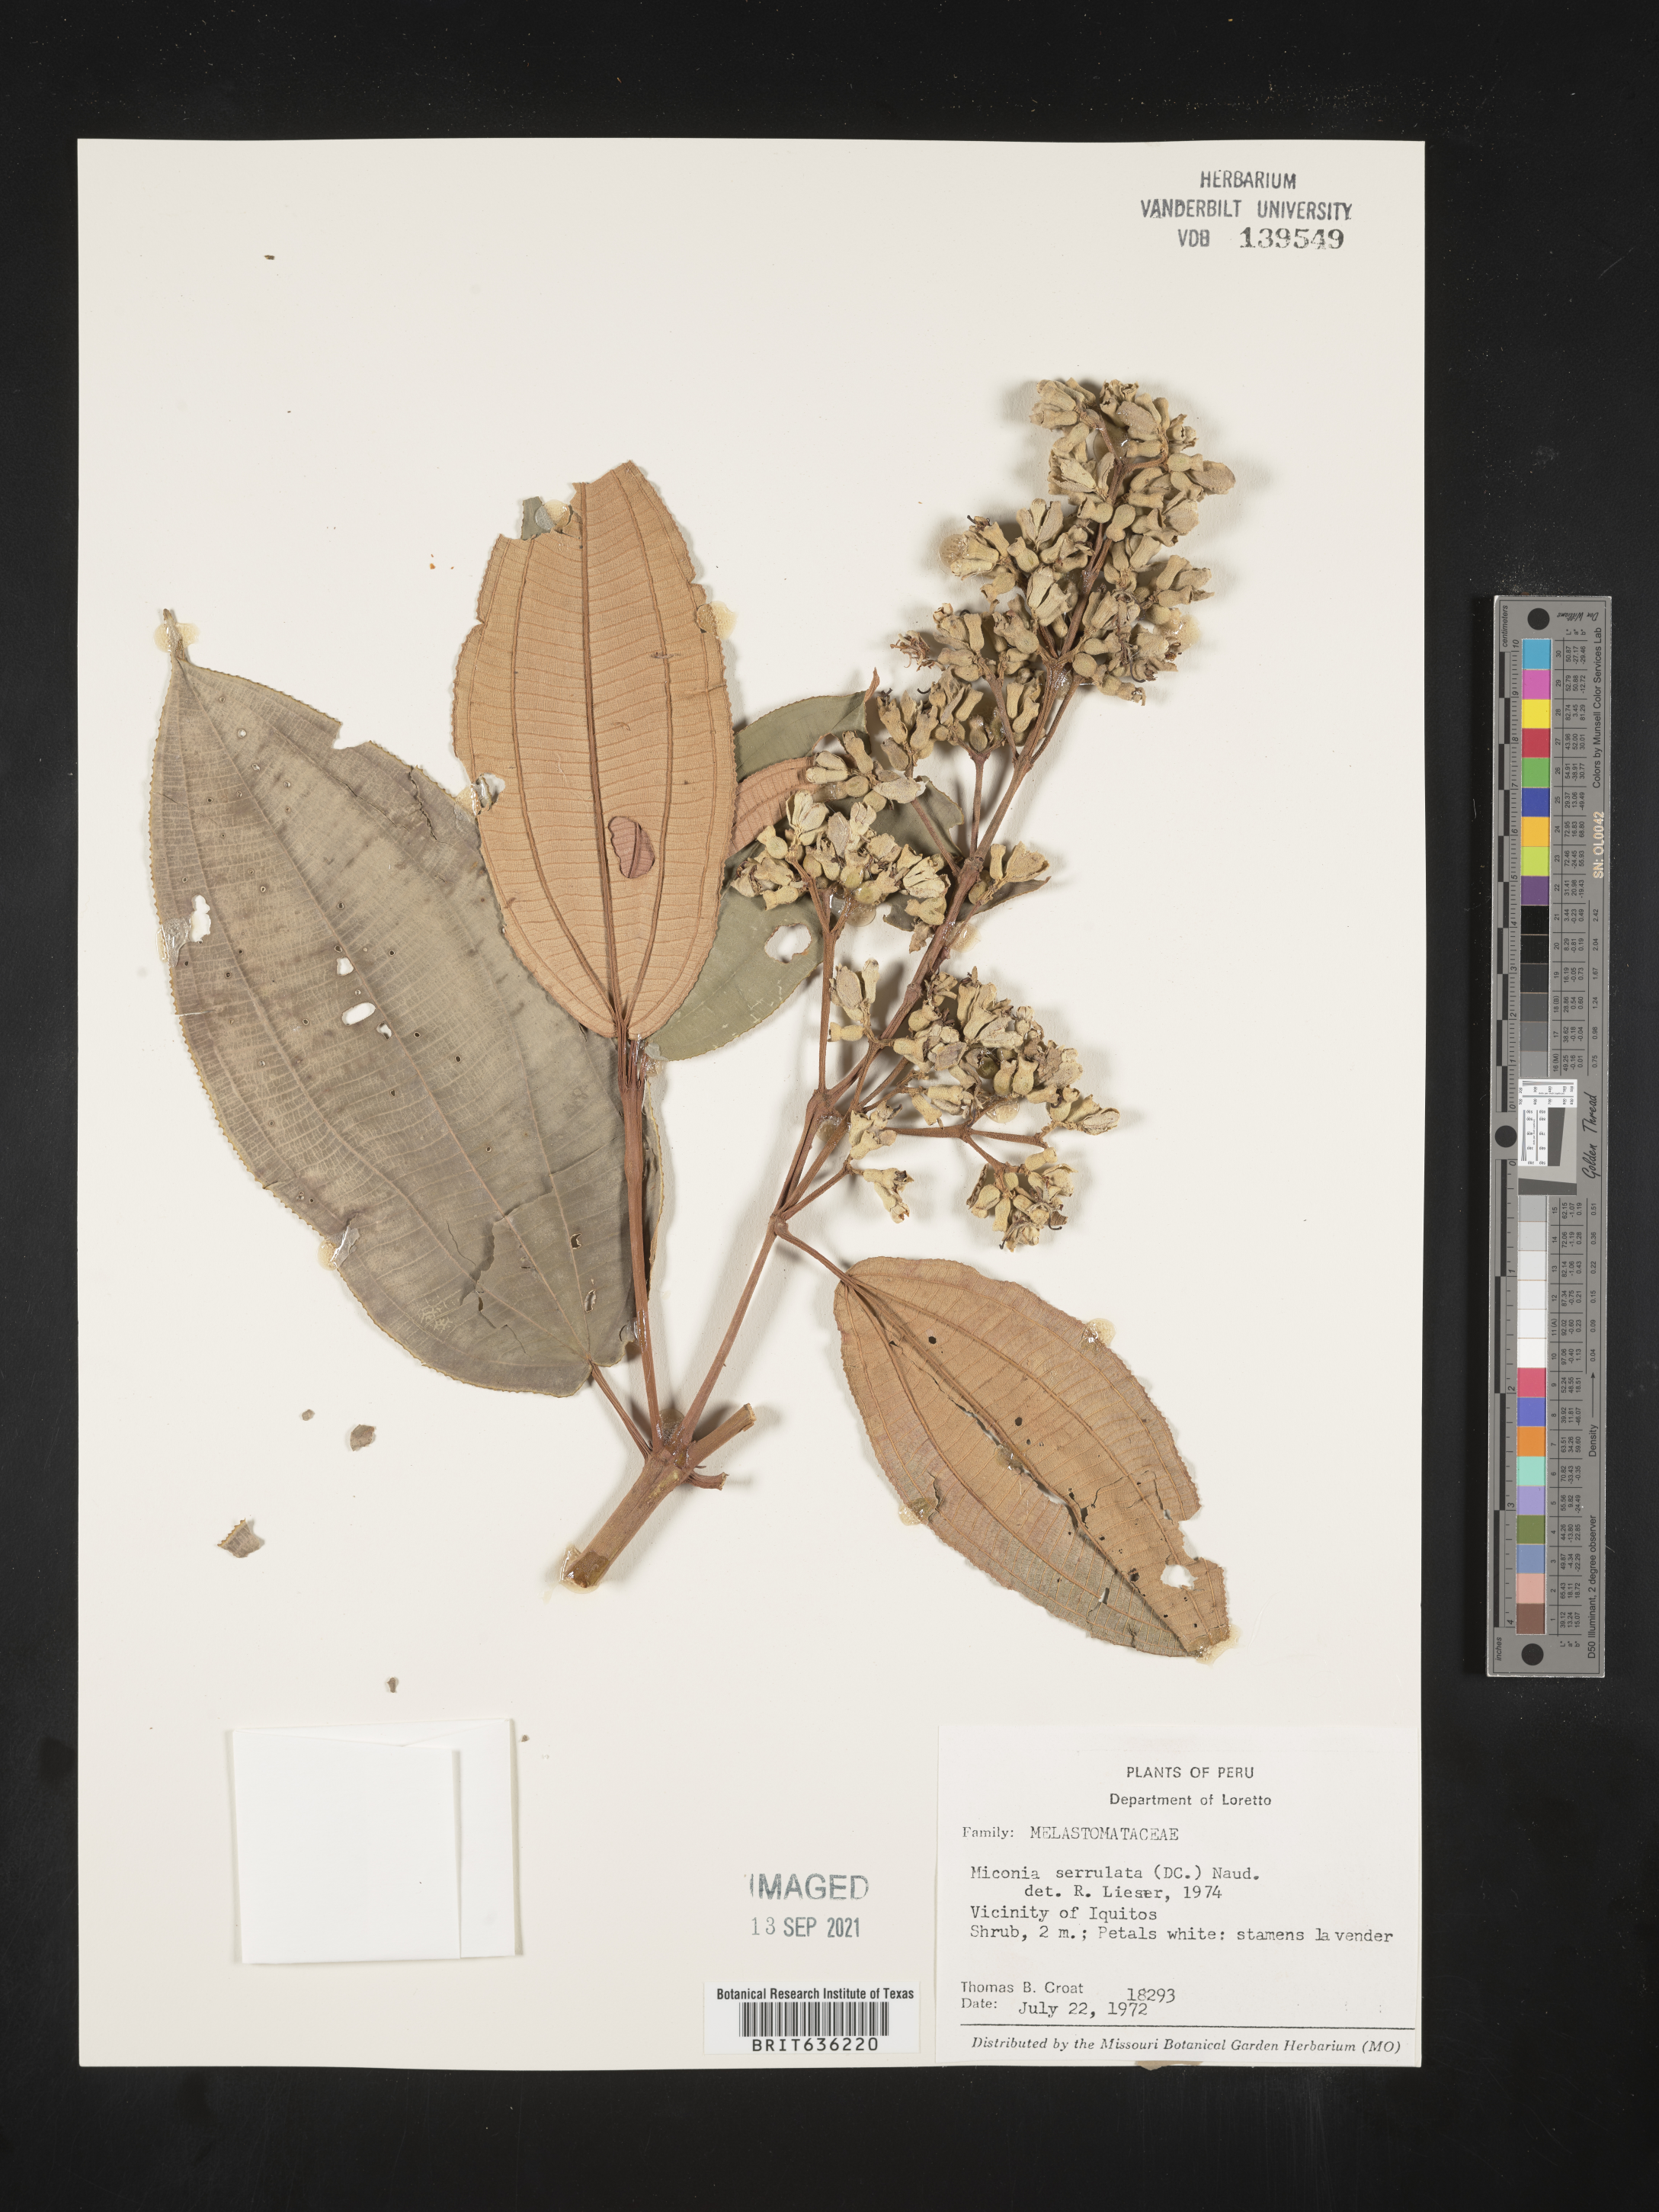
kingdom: Plantae
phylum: Tracheophyta
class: Magnoliopsida
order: Myrtales
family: Melastomataceae
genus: Miconia
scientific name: Miconia
